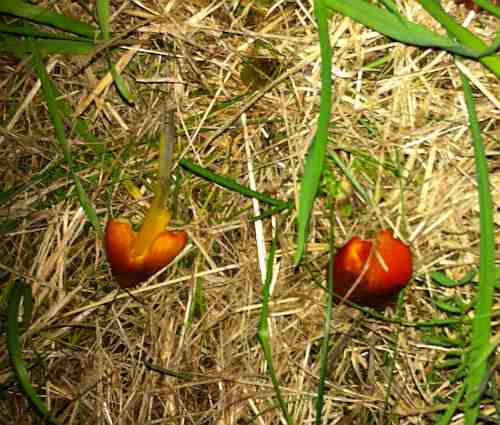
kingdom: Fungi
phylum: Basidiomycota
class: Agaricomycetes
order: Agaricales
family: Hygrophoraceae
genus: Hygrocybe
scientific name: Hygrocybe conica
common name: kegle-vokshat
